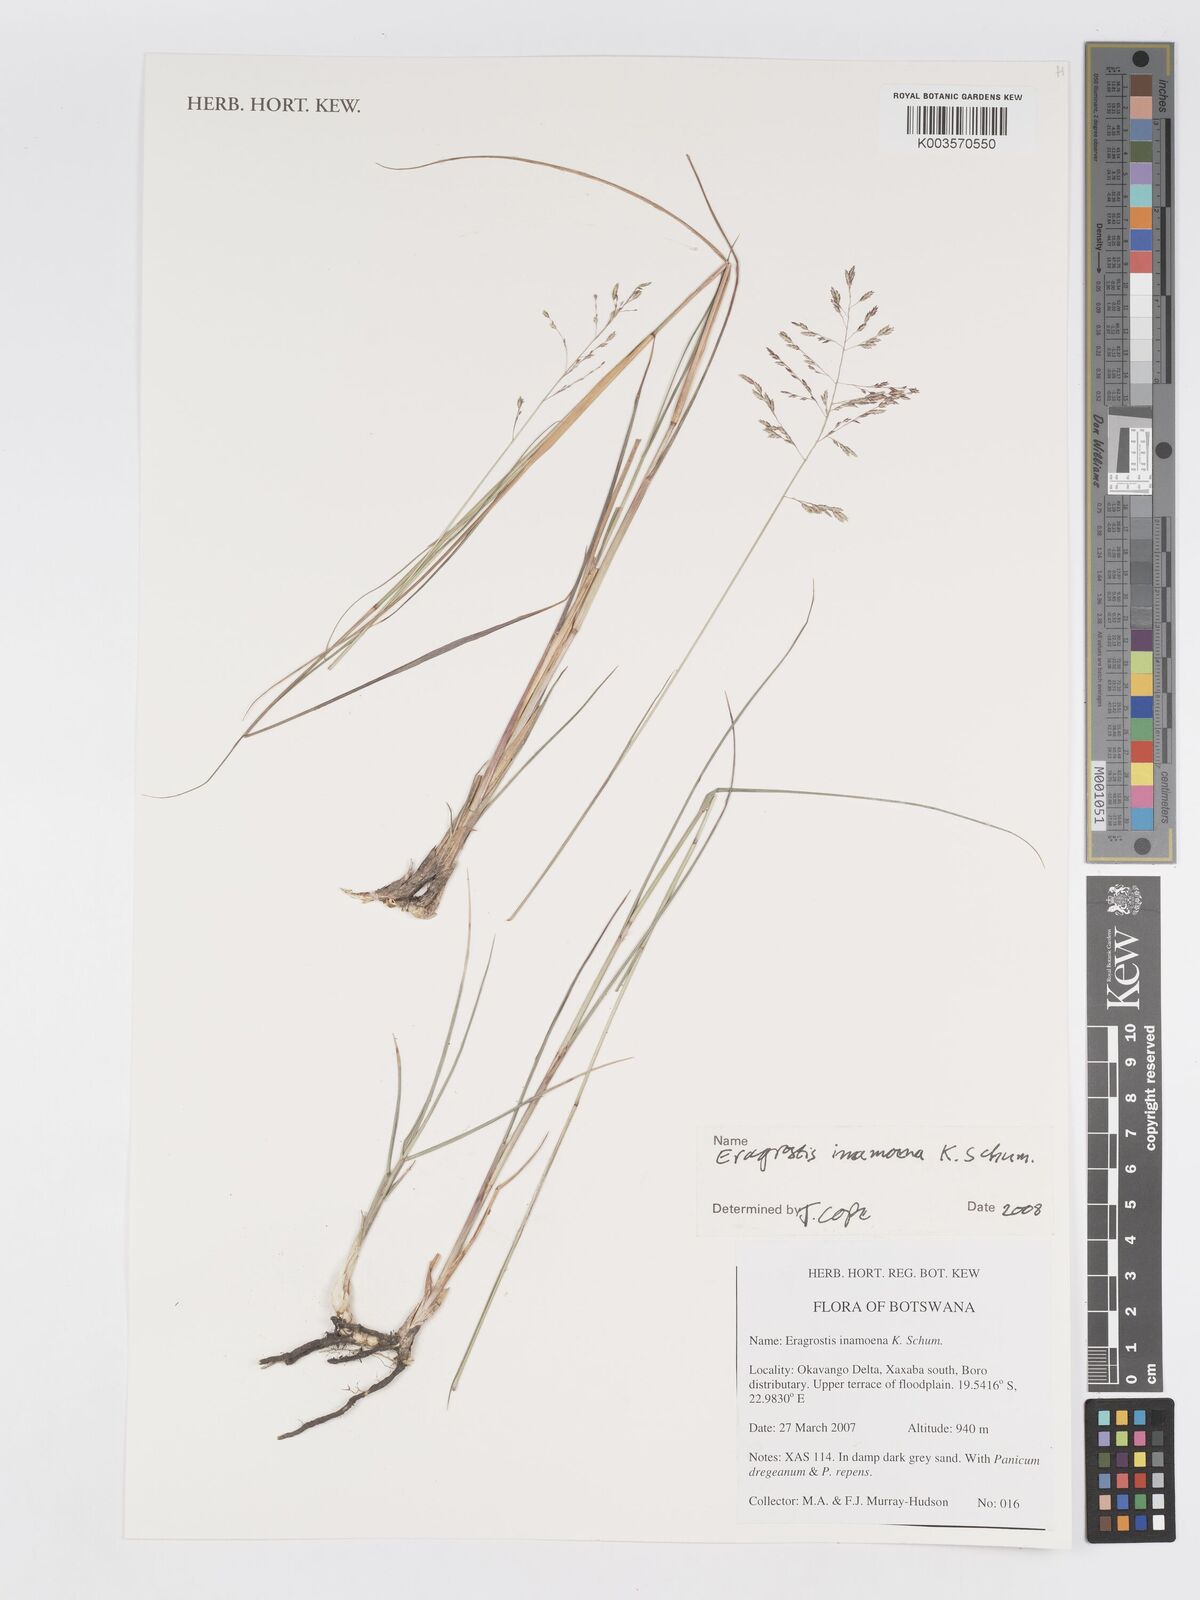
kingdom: Plantae
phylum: Tracheophyta
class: Liliopsida
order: Poales
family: Poaceae
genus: Eragrostis
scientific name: Eragrostis inamoena
